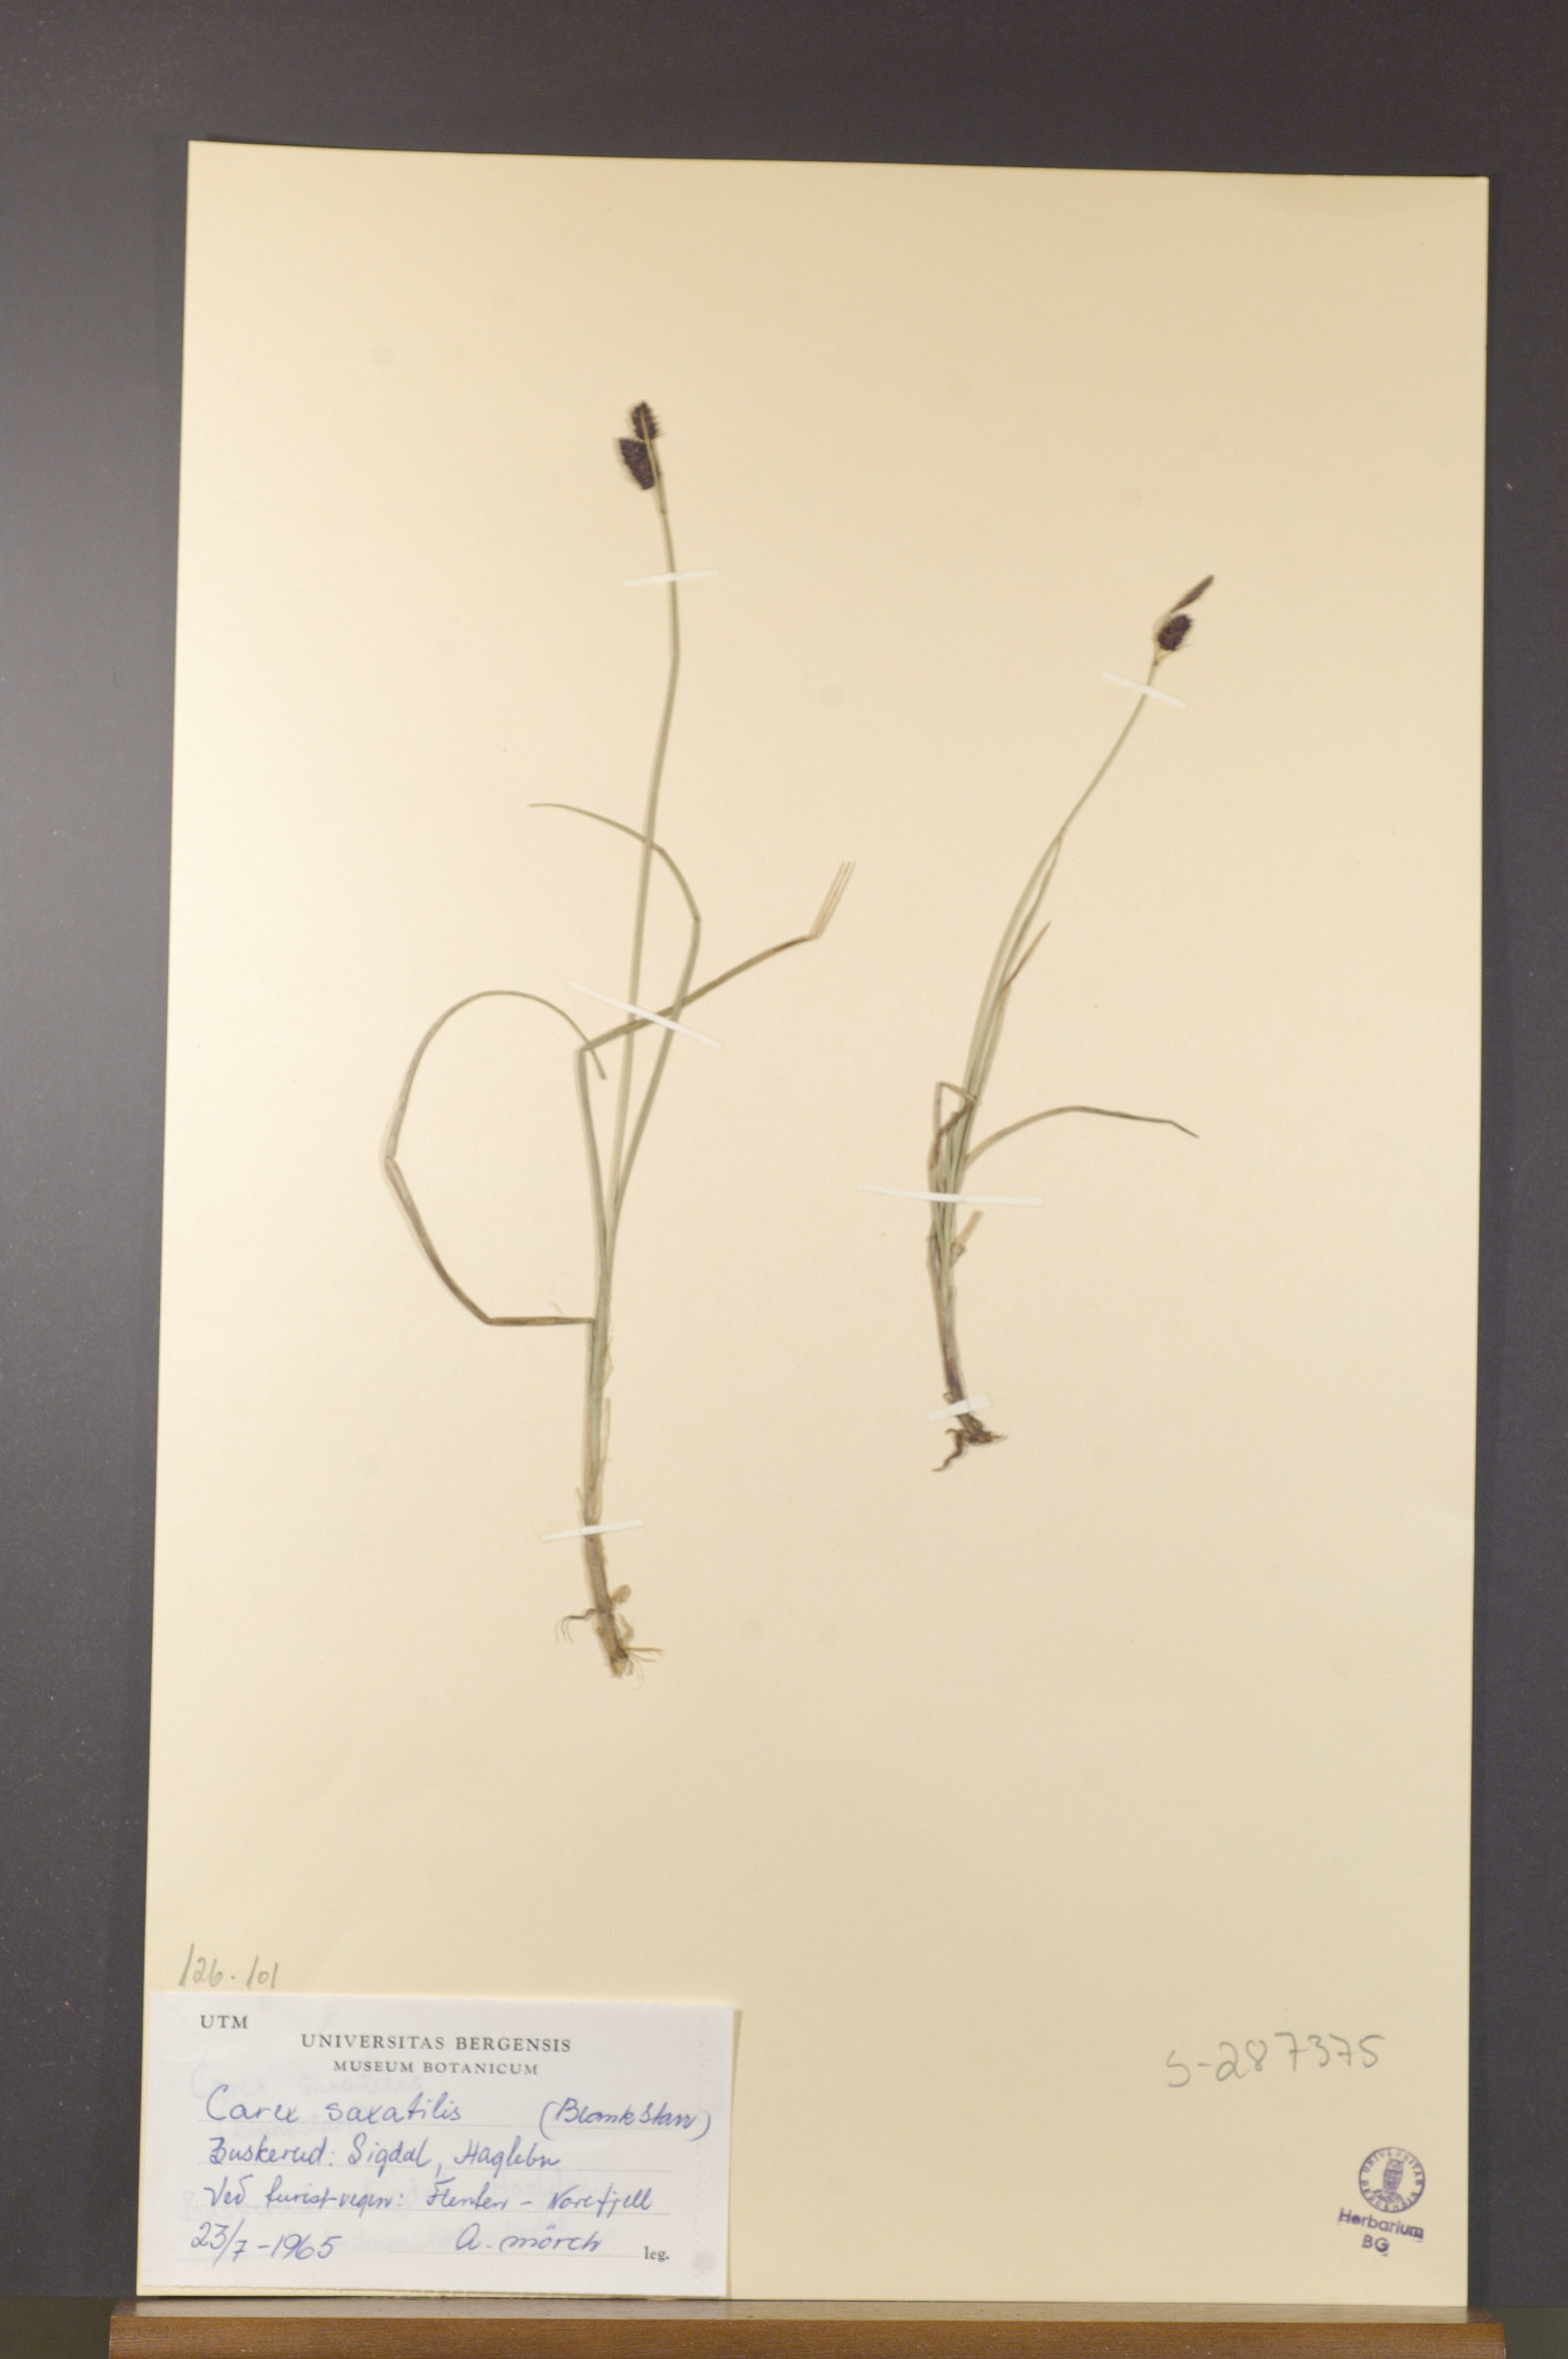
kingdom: Plantae
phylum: Tracheophyta
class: Liliopsida
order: Poales
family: Cyperaceae
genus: Carex
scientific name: Carex saxatilis
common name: Russet sedge
